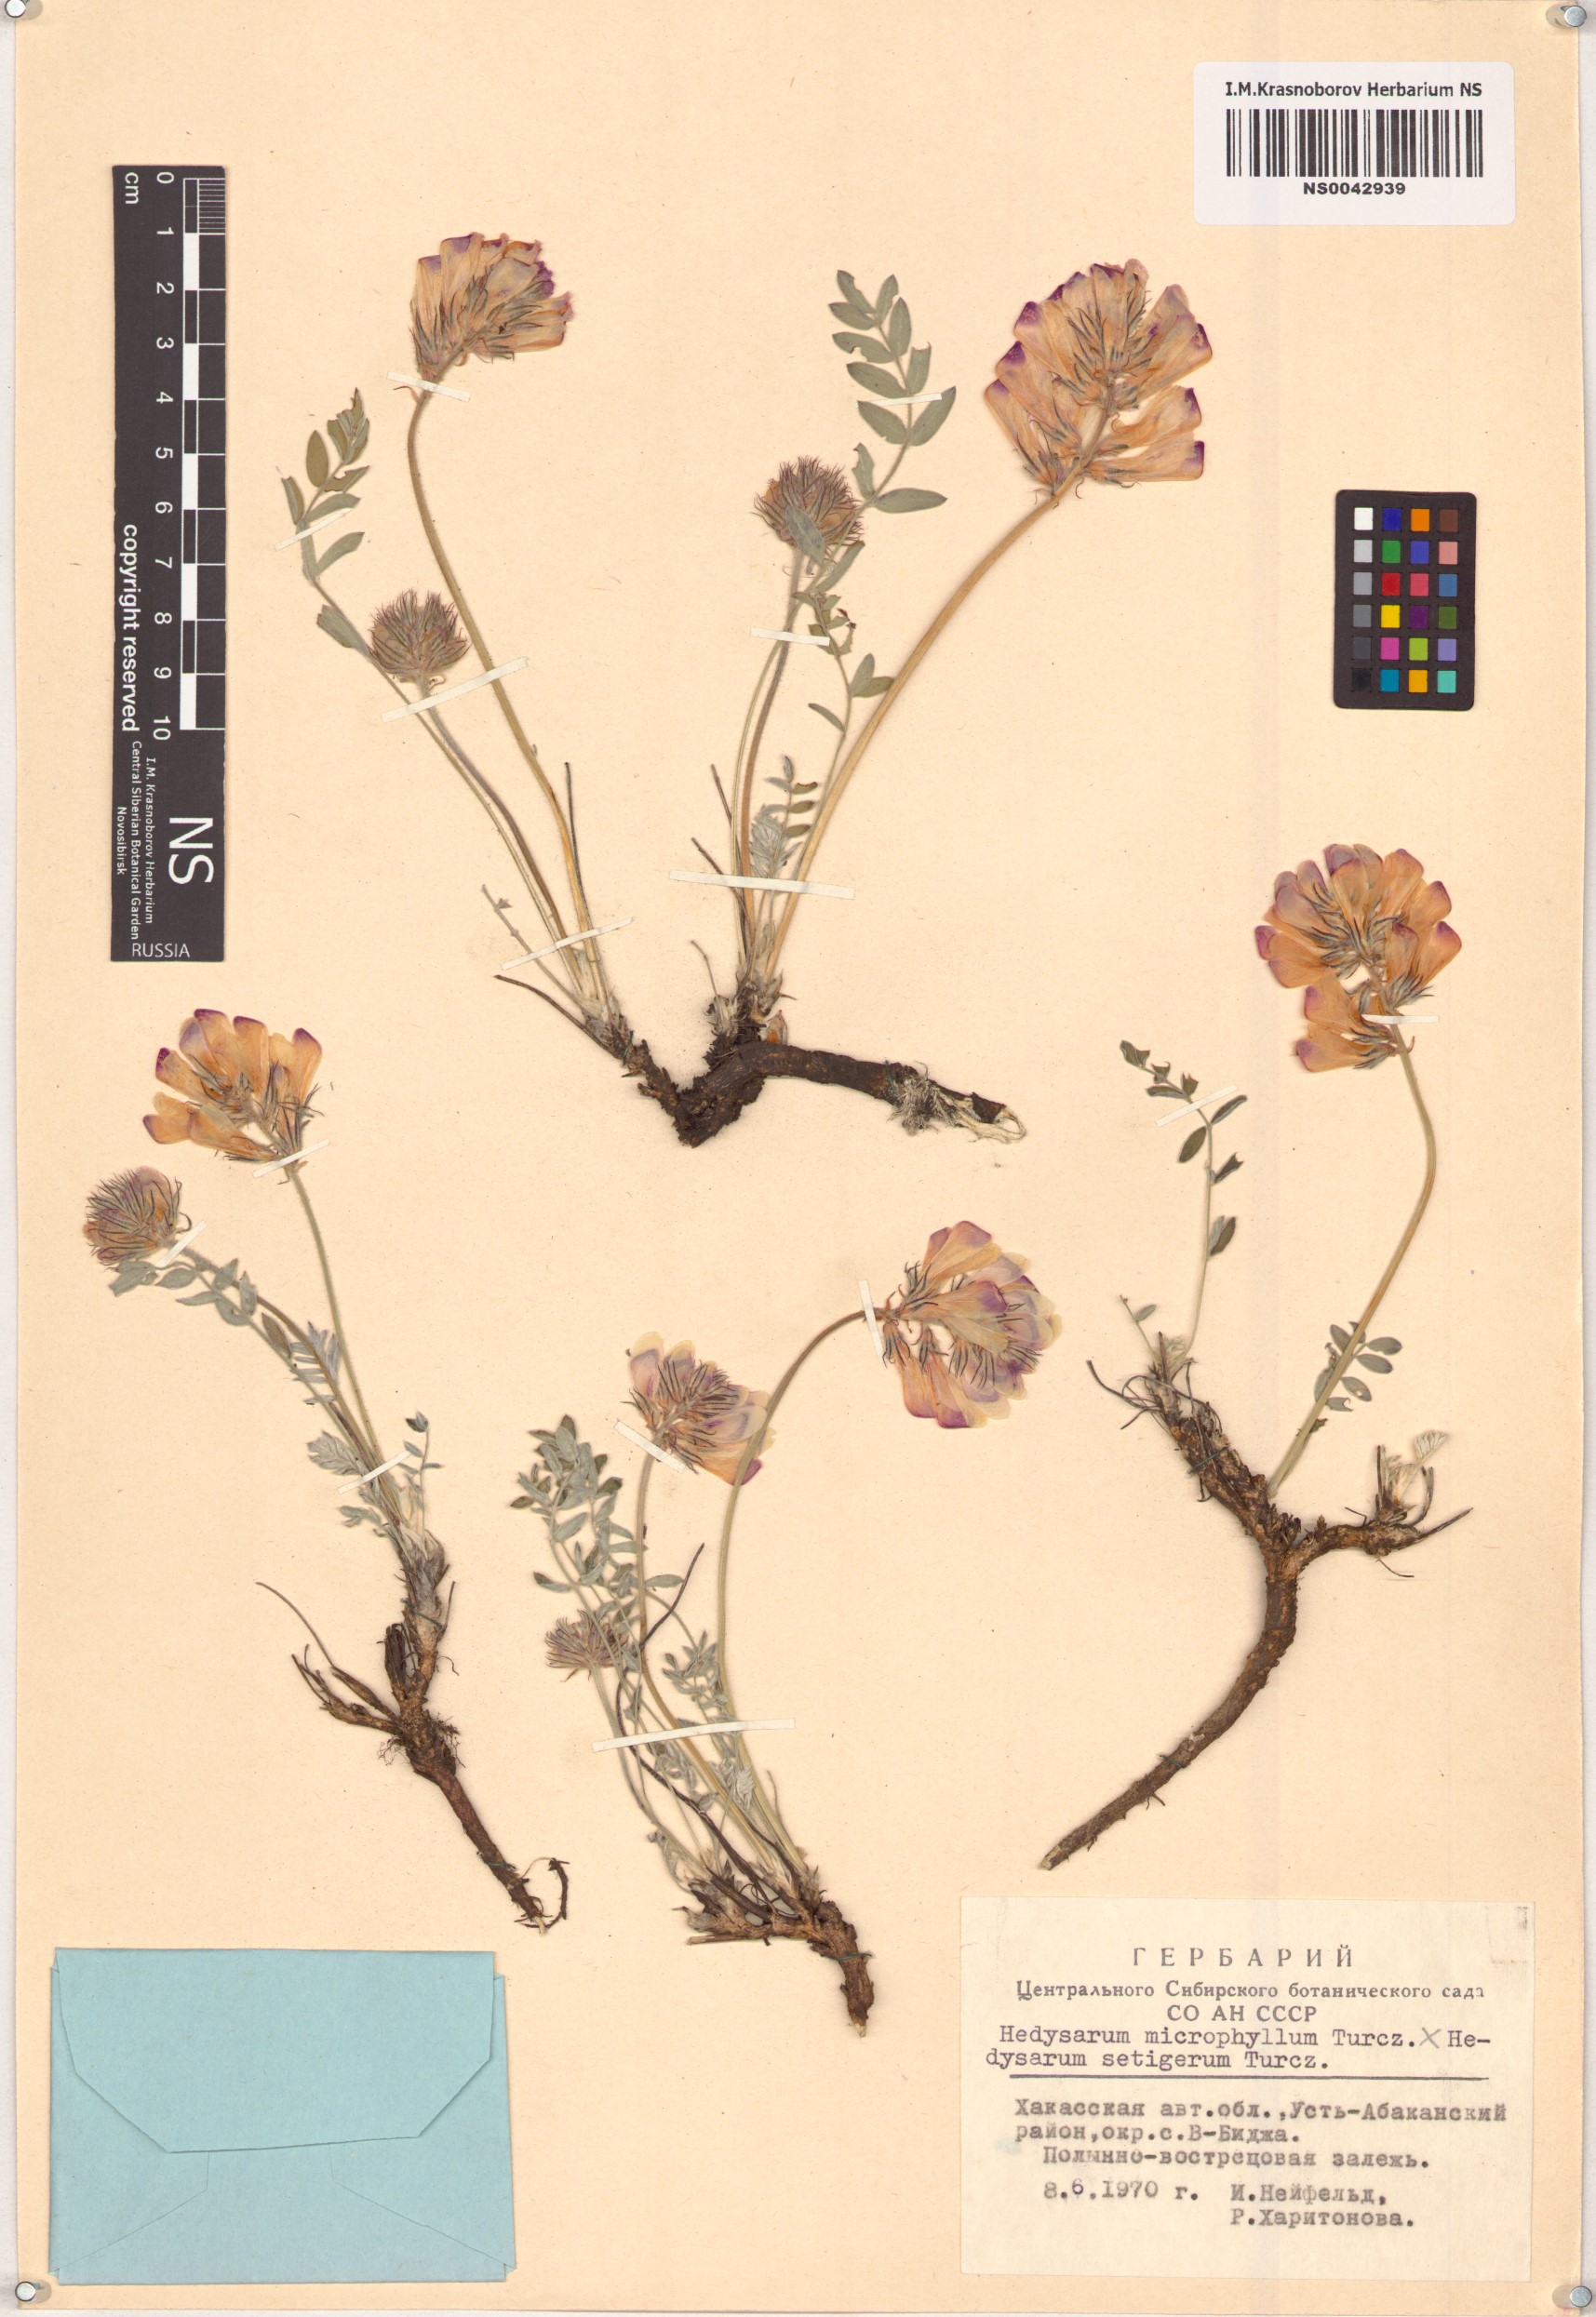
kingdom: Plantae
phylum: Tracheophyta
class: Magnoliopsida
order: Fabales
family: Fabaceae
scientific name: Fabaceae
